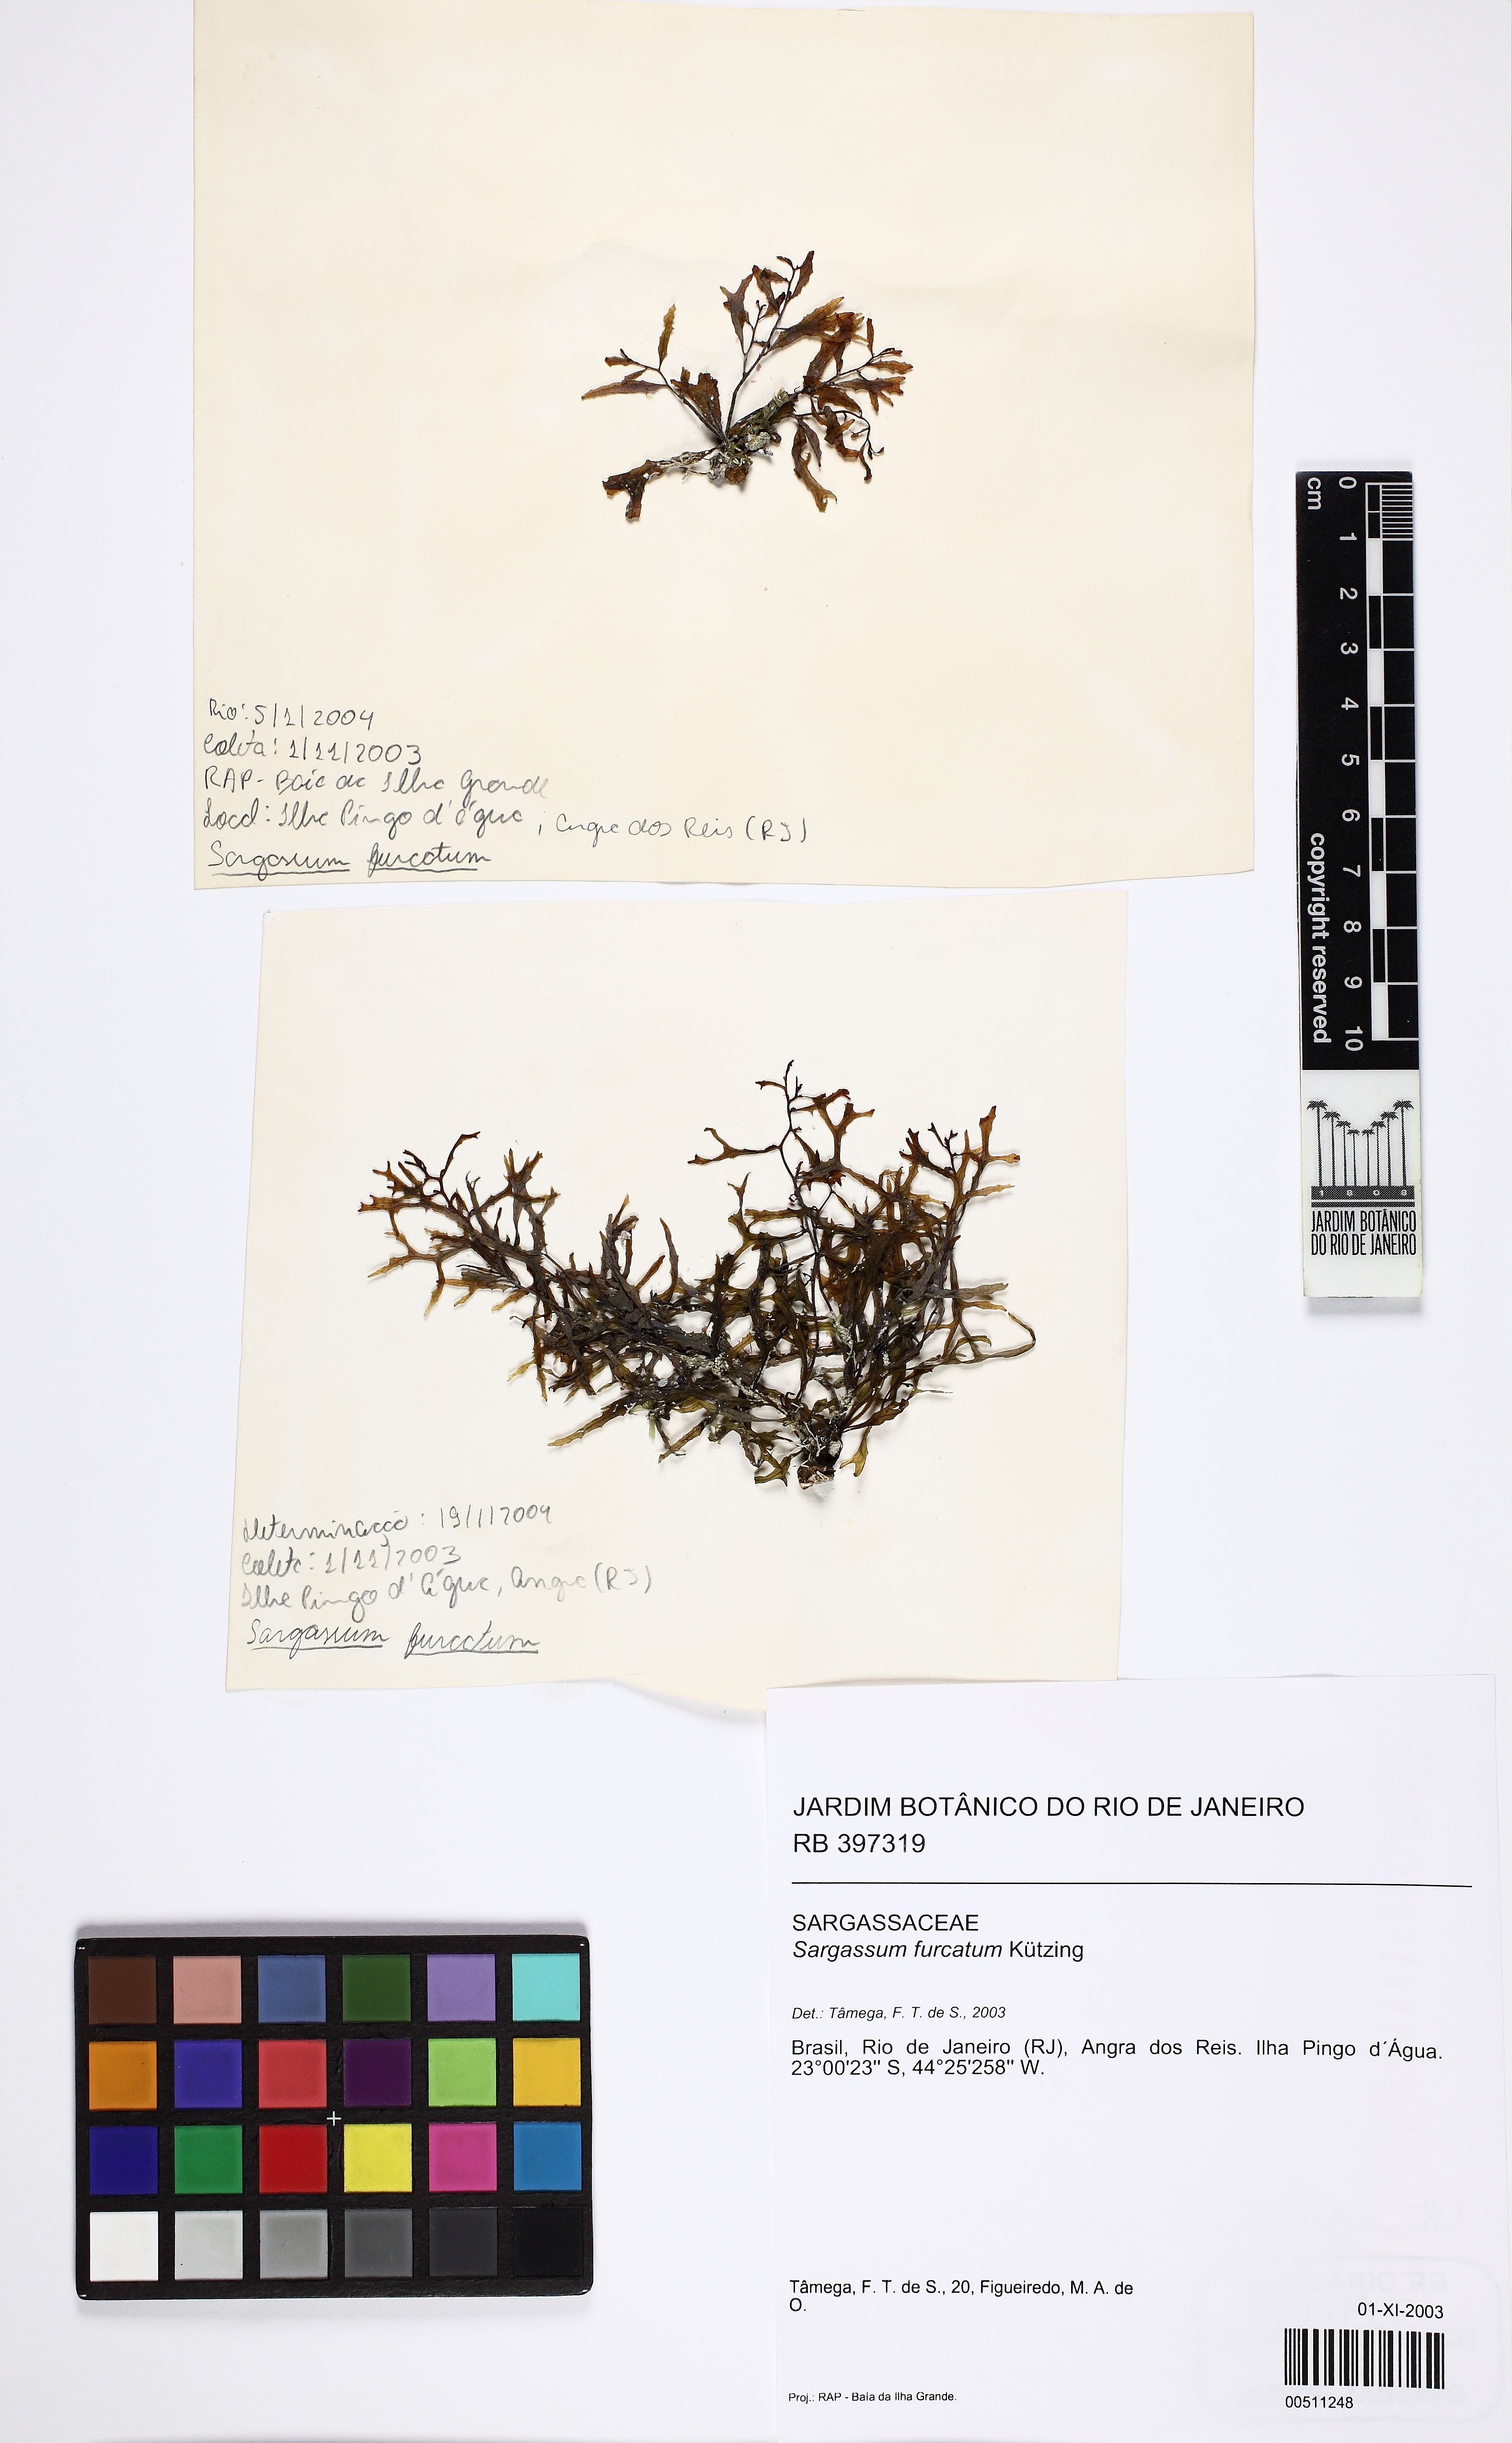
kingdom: Chromista
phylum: Ochrophyta
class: Phaeophyceae
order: Fucales
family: Sargassaceae
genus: Sargassum
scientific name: Sargassum furcatum
